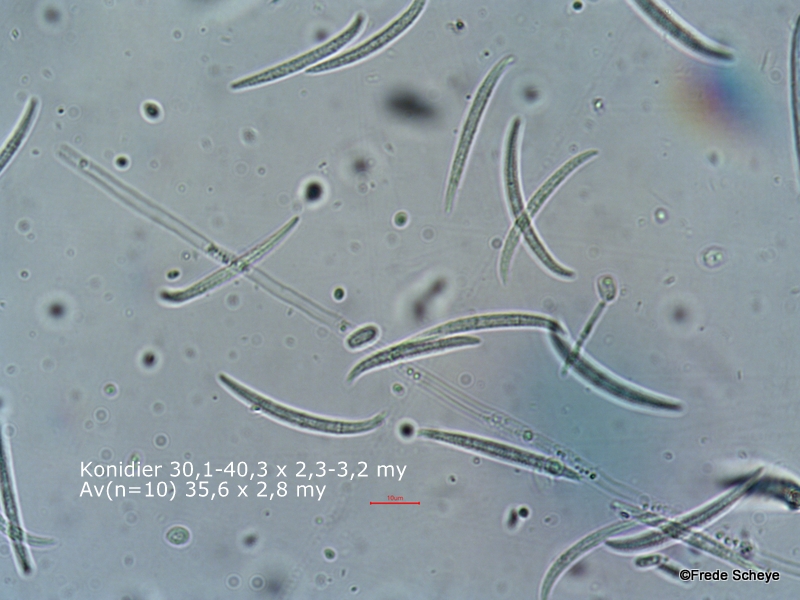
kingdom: Fungi
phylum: Ascomycota
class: Sordariomycetes
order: Hypocreales
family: Nectriaceae
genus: Fusarium
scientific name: Fusarium
